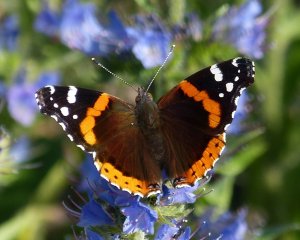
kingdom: Animalia
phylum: Arthropoda
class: Insecta
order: Lepidoptera
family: Nymphalidae
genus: Vanessa
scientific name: Vanessa atalanta
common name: Red Admiral
